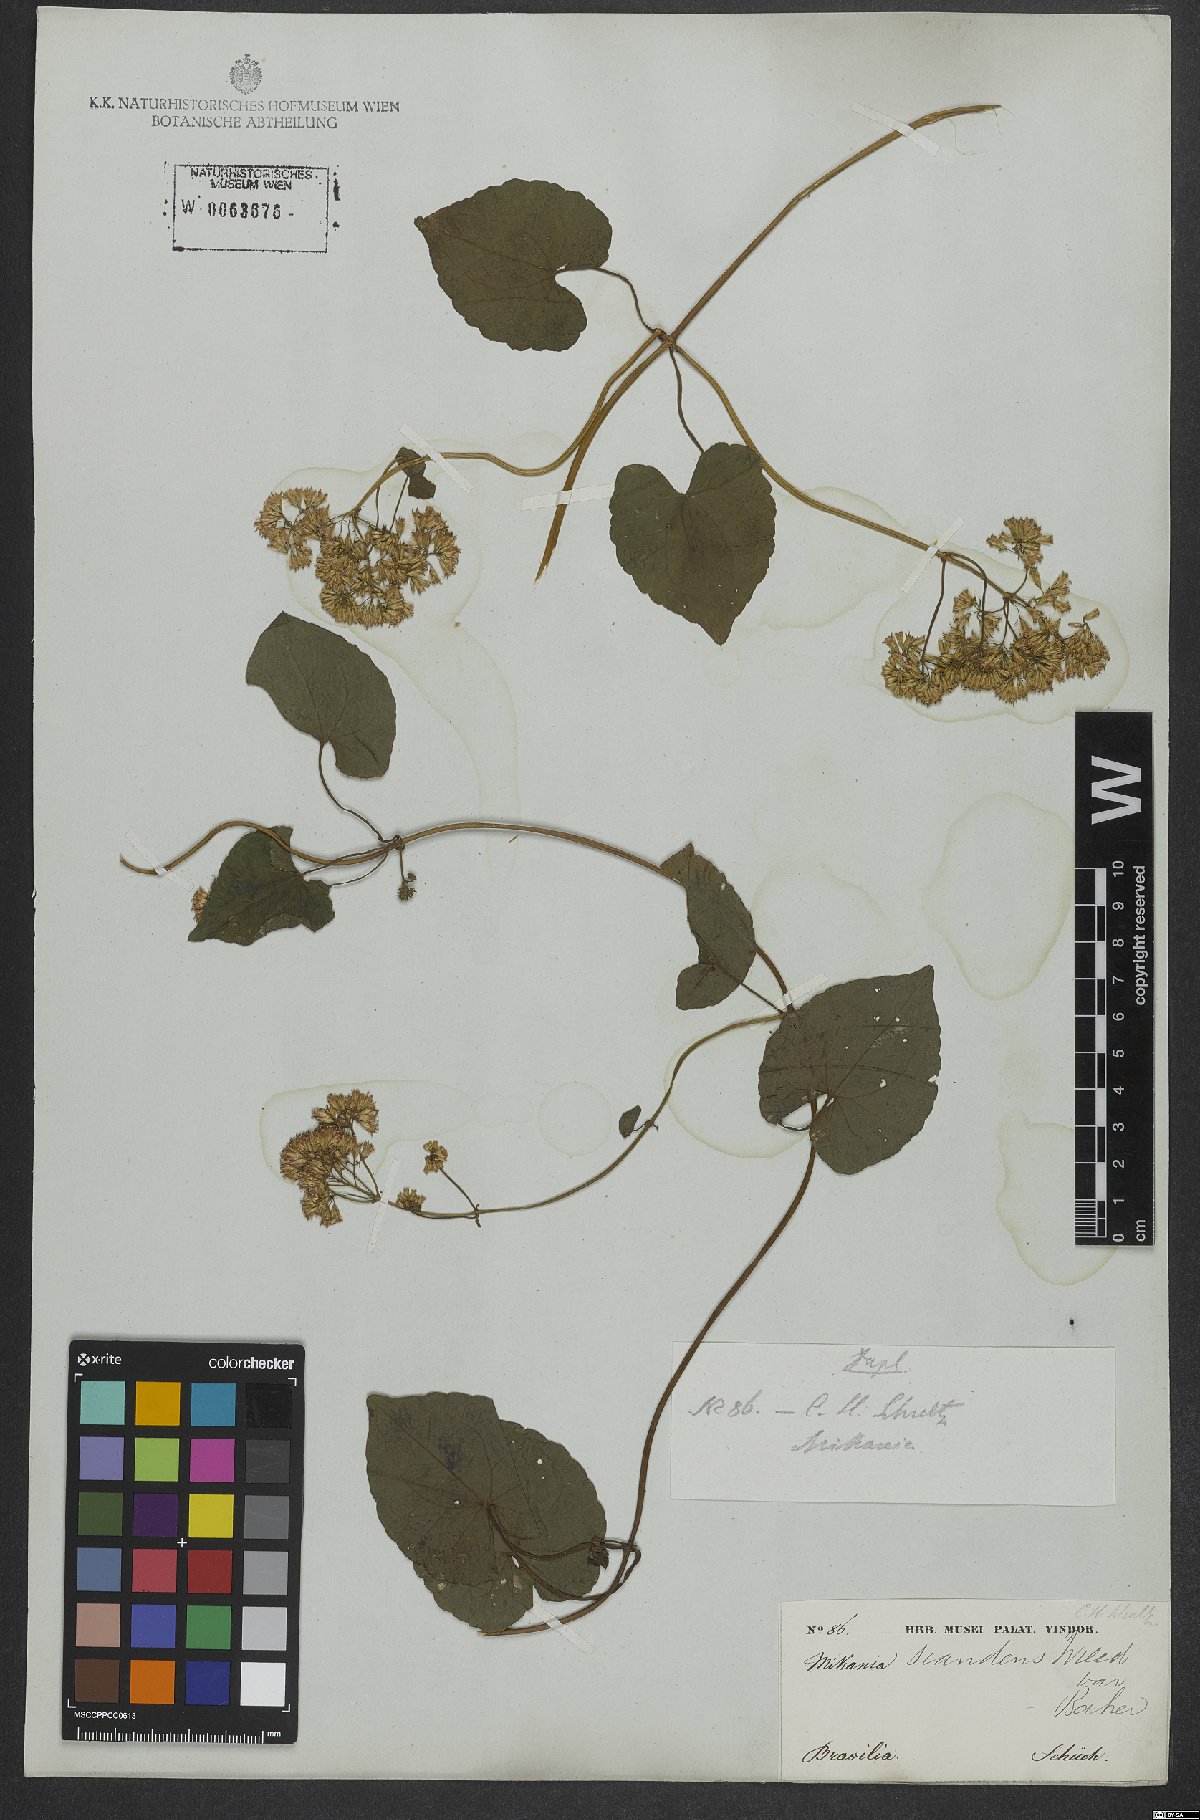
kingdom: Plantae
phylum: Tracheophyta
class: Magnoliopsida
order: Asterales
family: Asteraceae
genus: Mikania
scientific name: Mikania scandens
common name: Climbing hempvine
